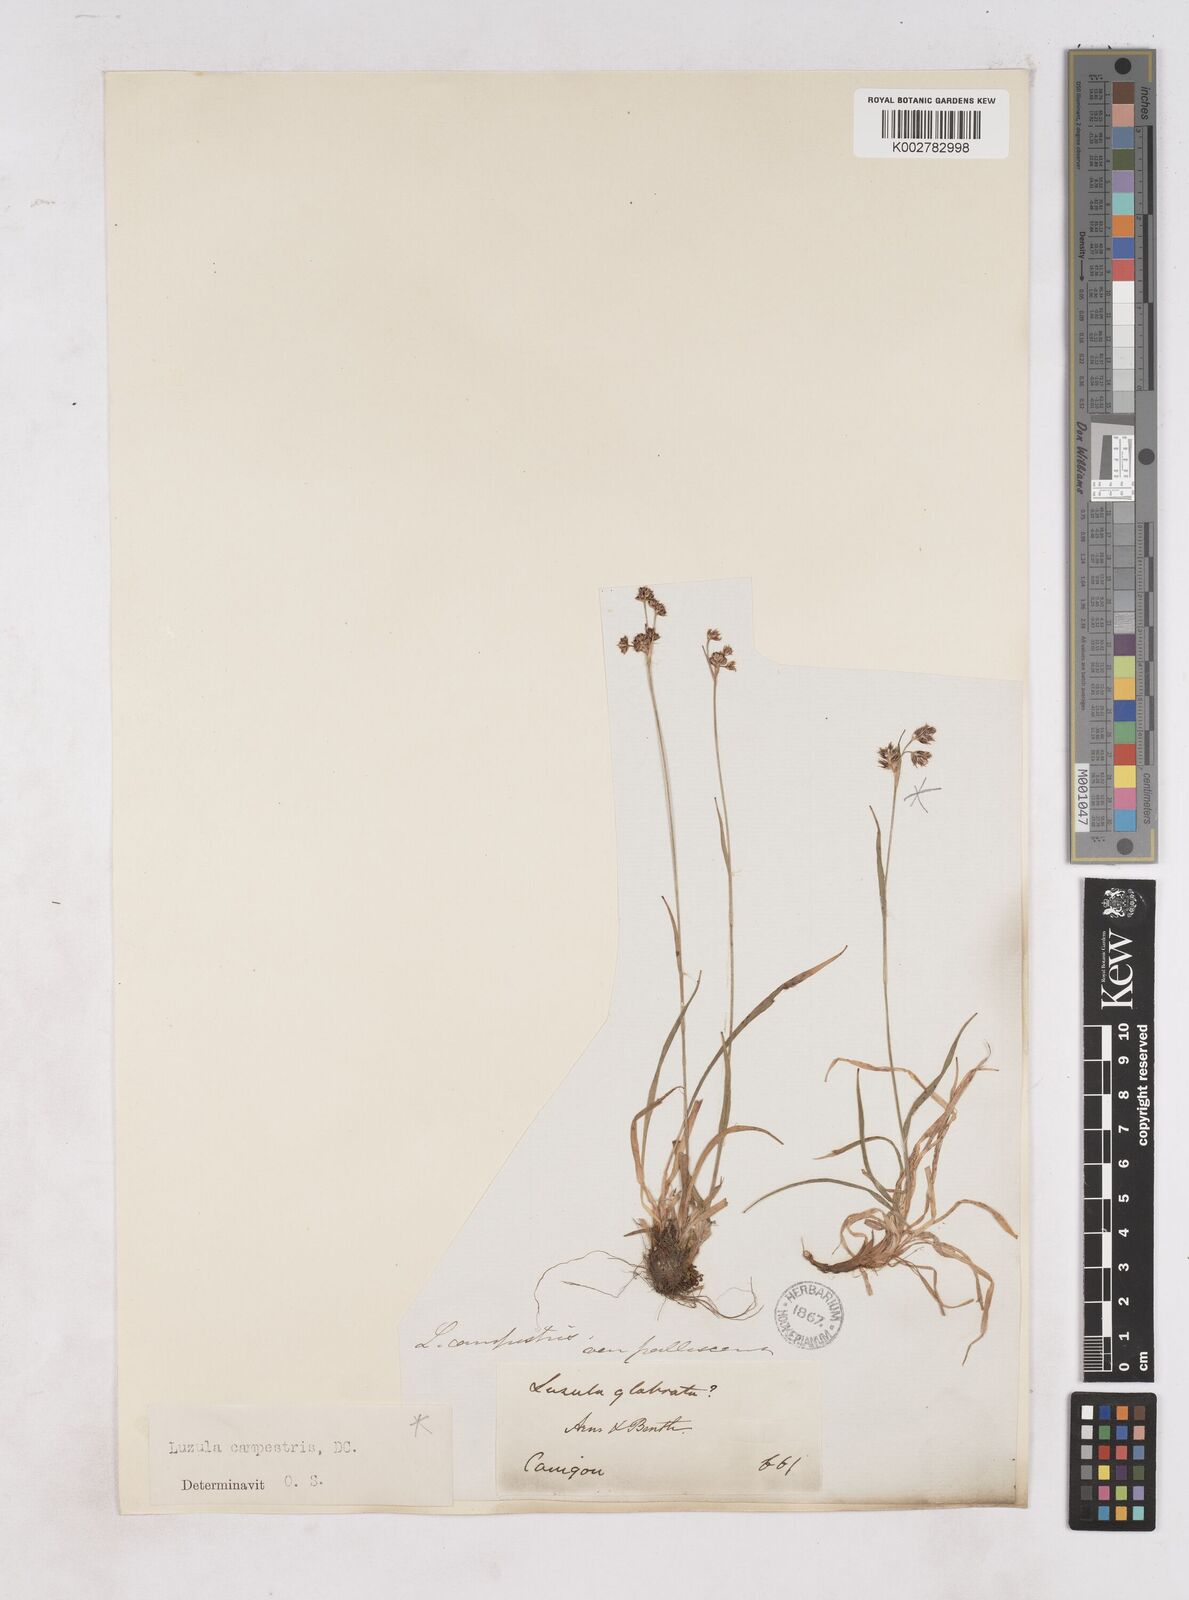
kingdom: Plantae
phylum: Tracheophyta
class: Liliopsida
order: Poales
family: Juncaceae
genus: Luzula
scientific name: Luzula campestris
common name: Field wood-rush
